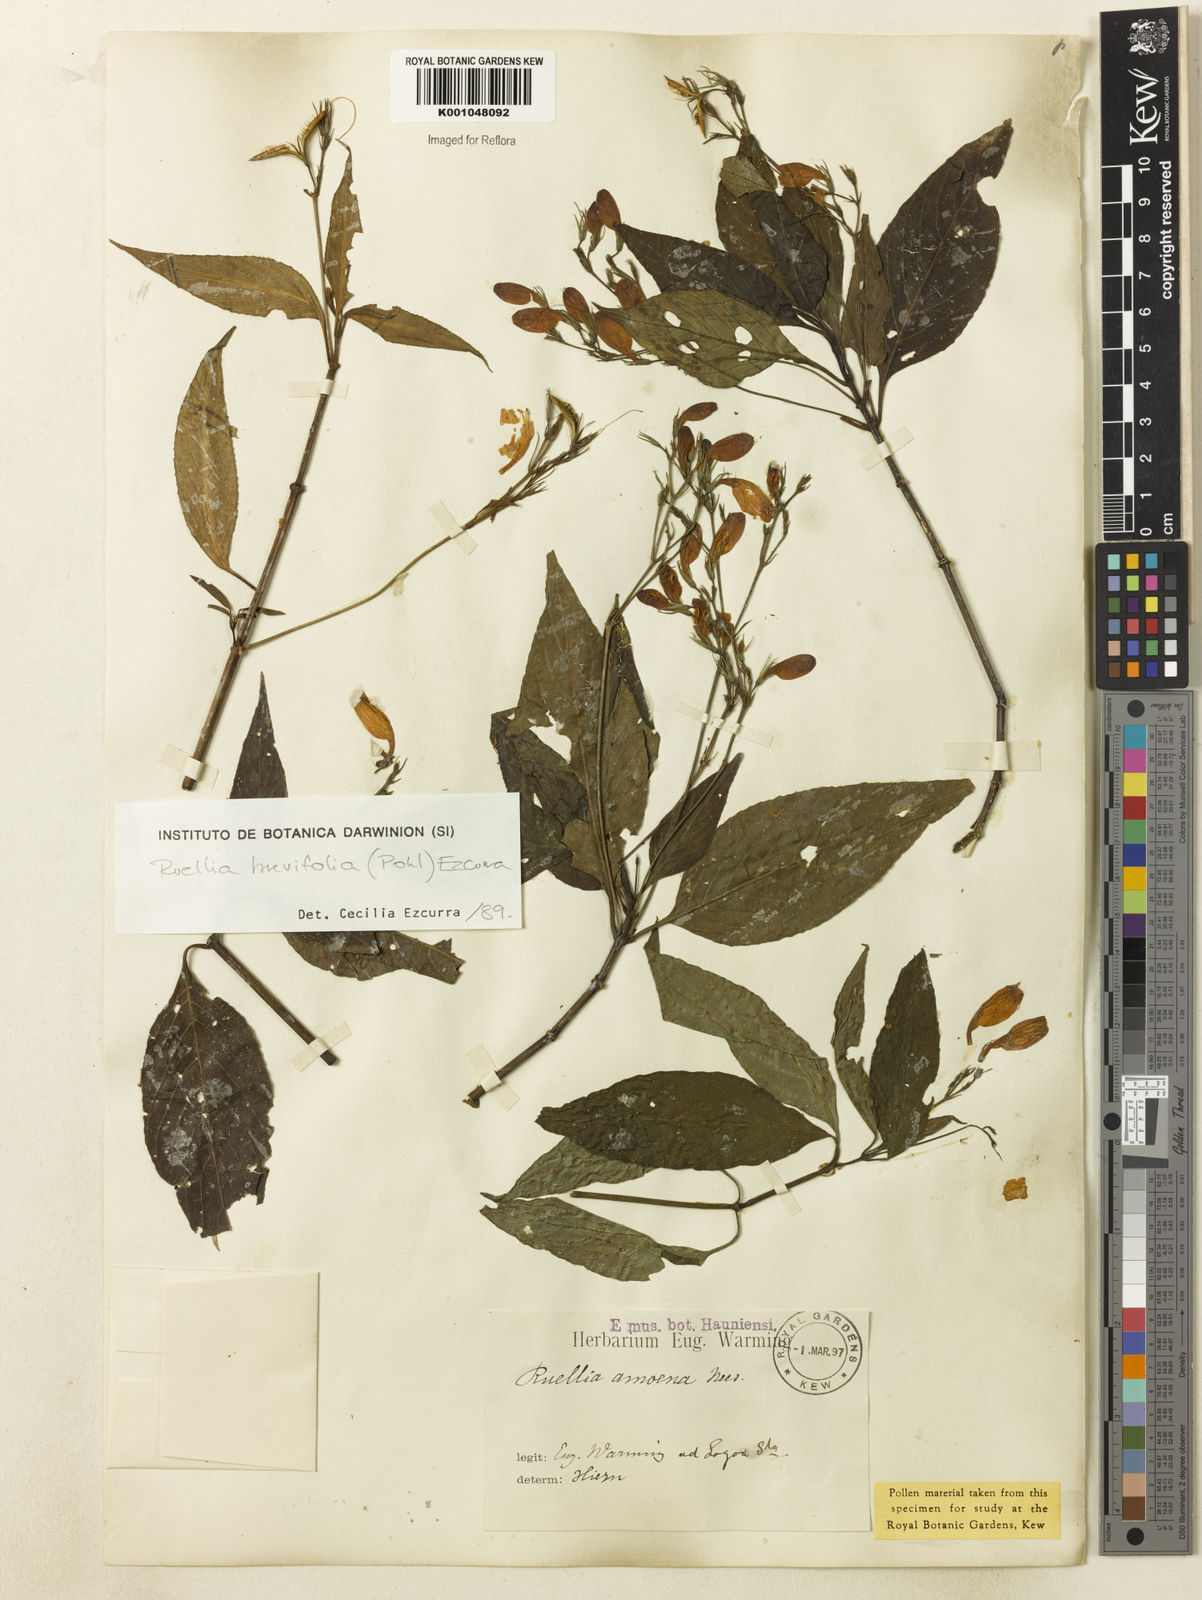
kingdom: Plantae
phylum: Tracheophyta
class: Magnoliopsida
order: Lamiales
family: Acanthaceae
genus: Ruellia
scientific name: Ruellia brevifolia
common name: Tropical wild petunia
